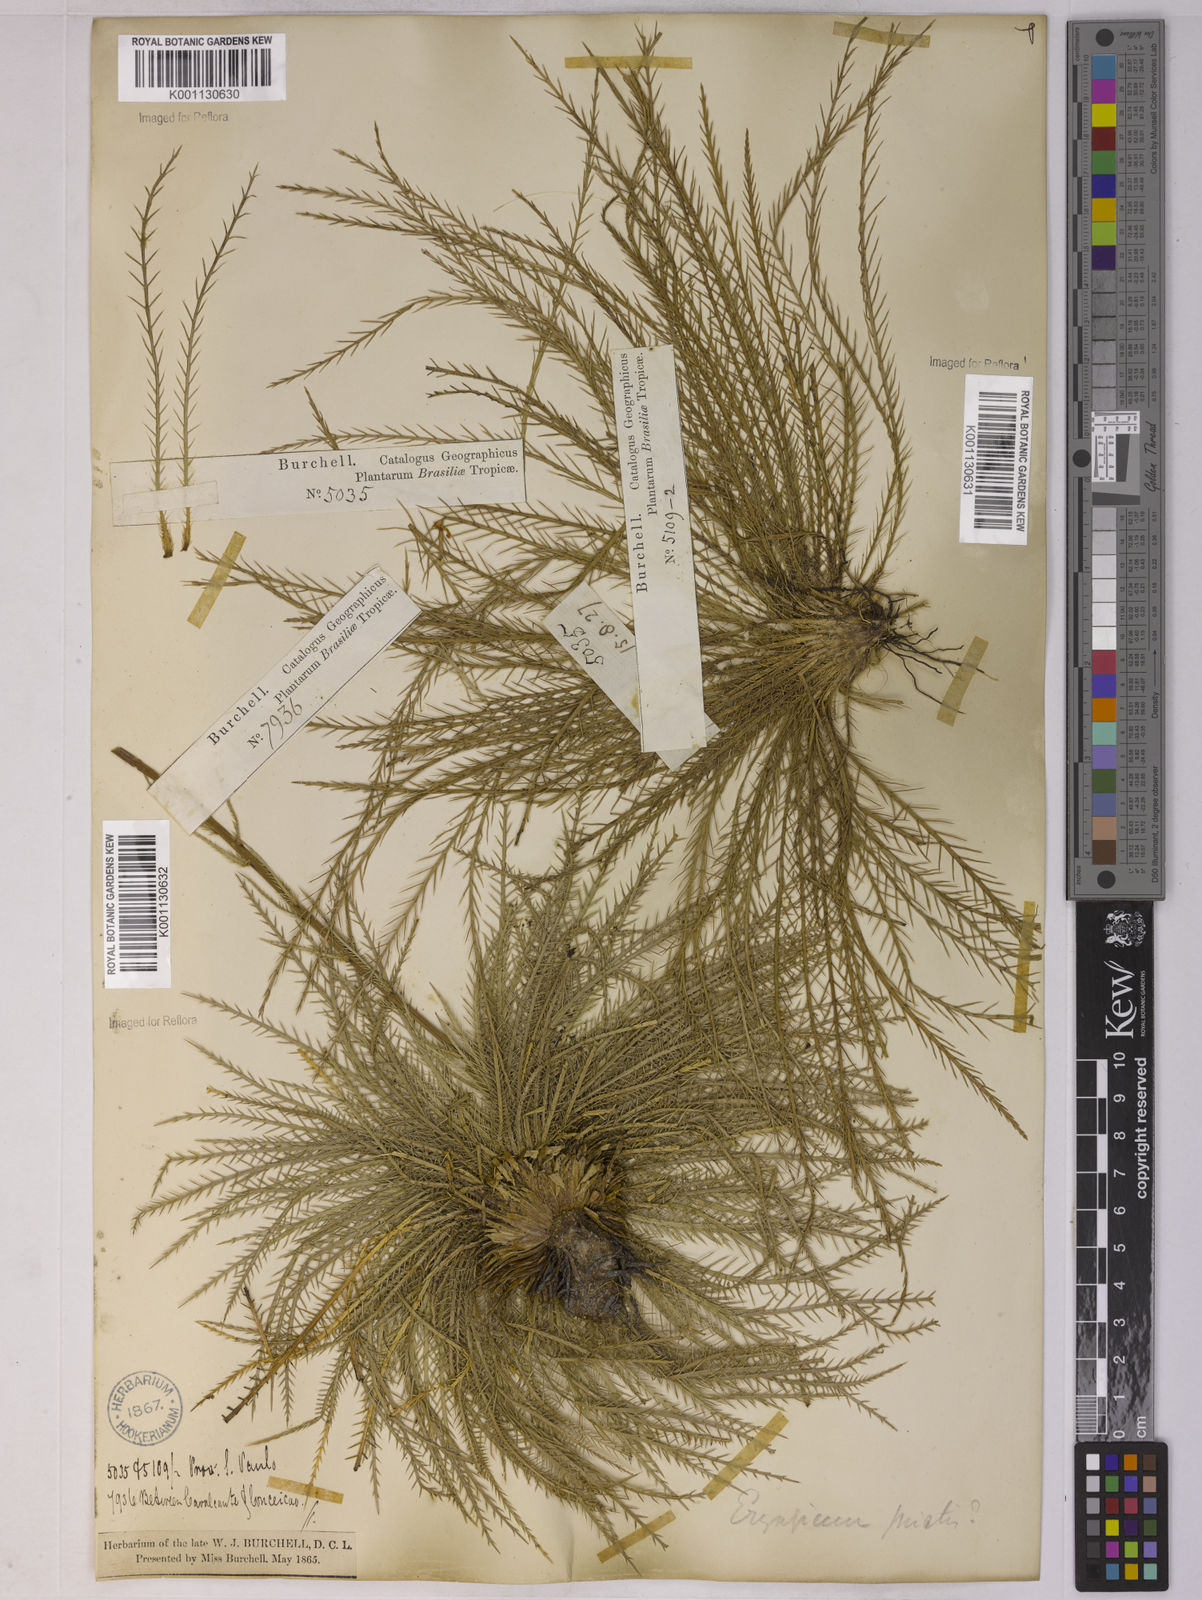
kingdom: Plantae
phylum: Tracheophyta
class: Magnoliopsida
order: Apiales
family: Apiaceae
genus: Eryngium
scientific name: Eryngium pristis
